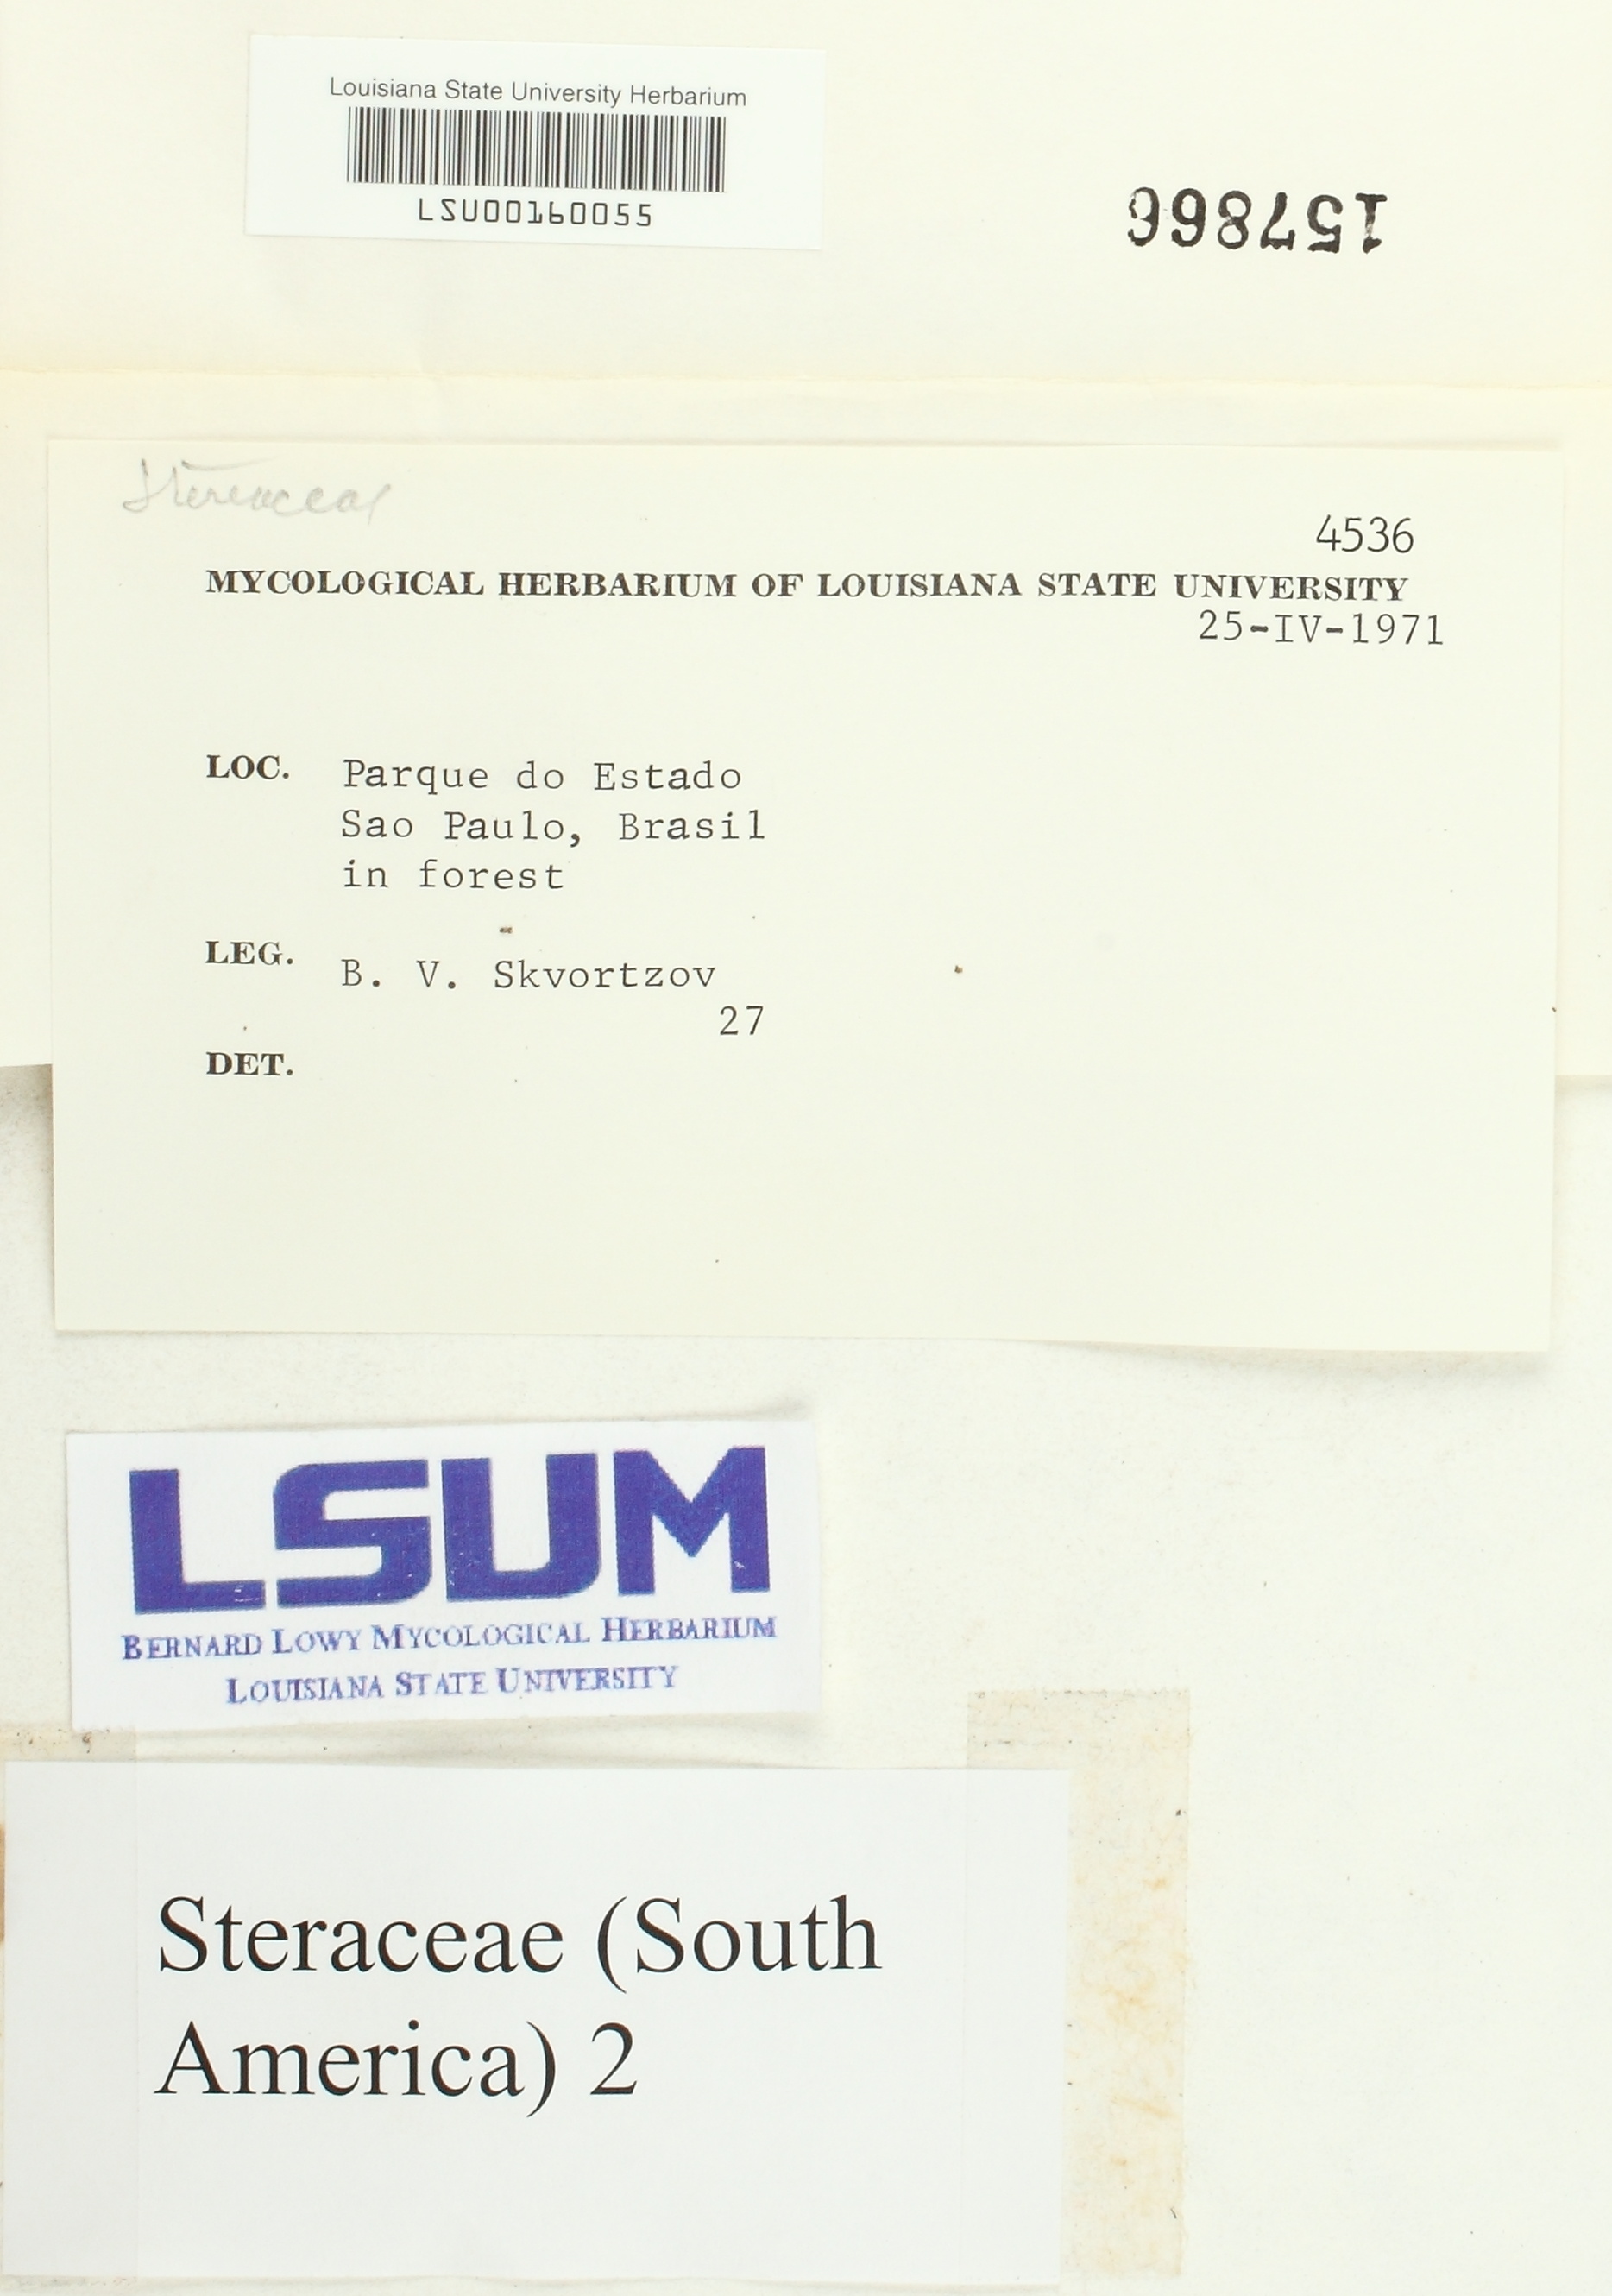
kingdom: Fungi
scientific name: Fungi
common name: Fungi
